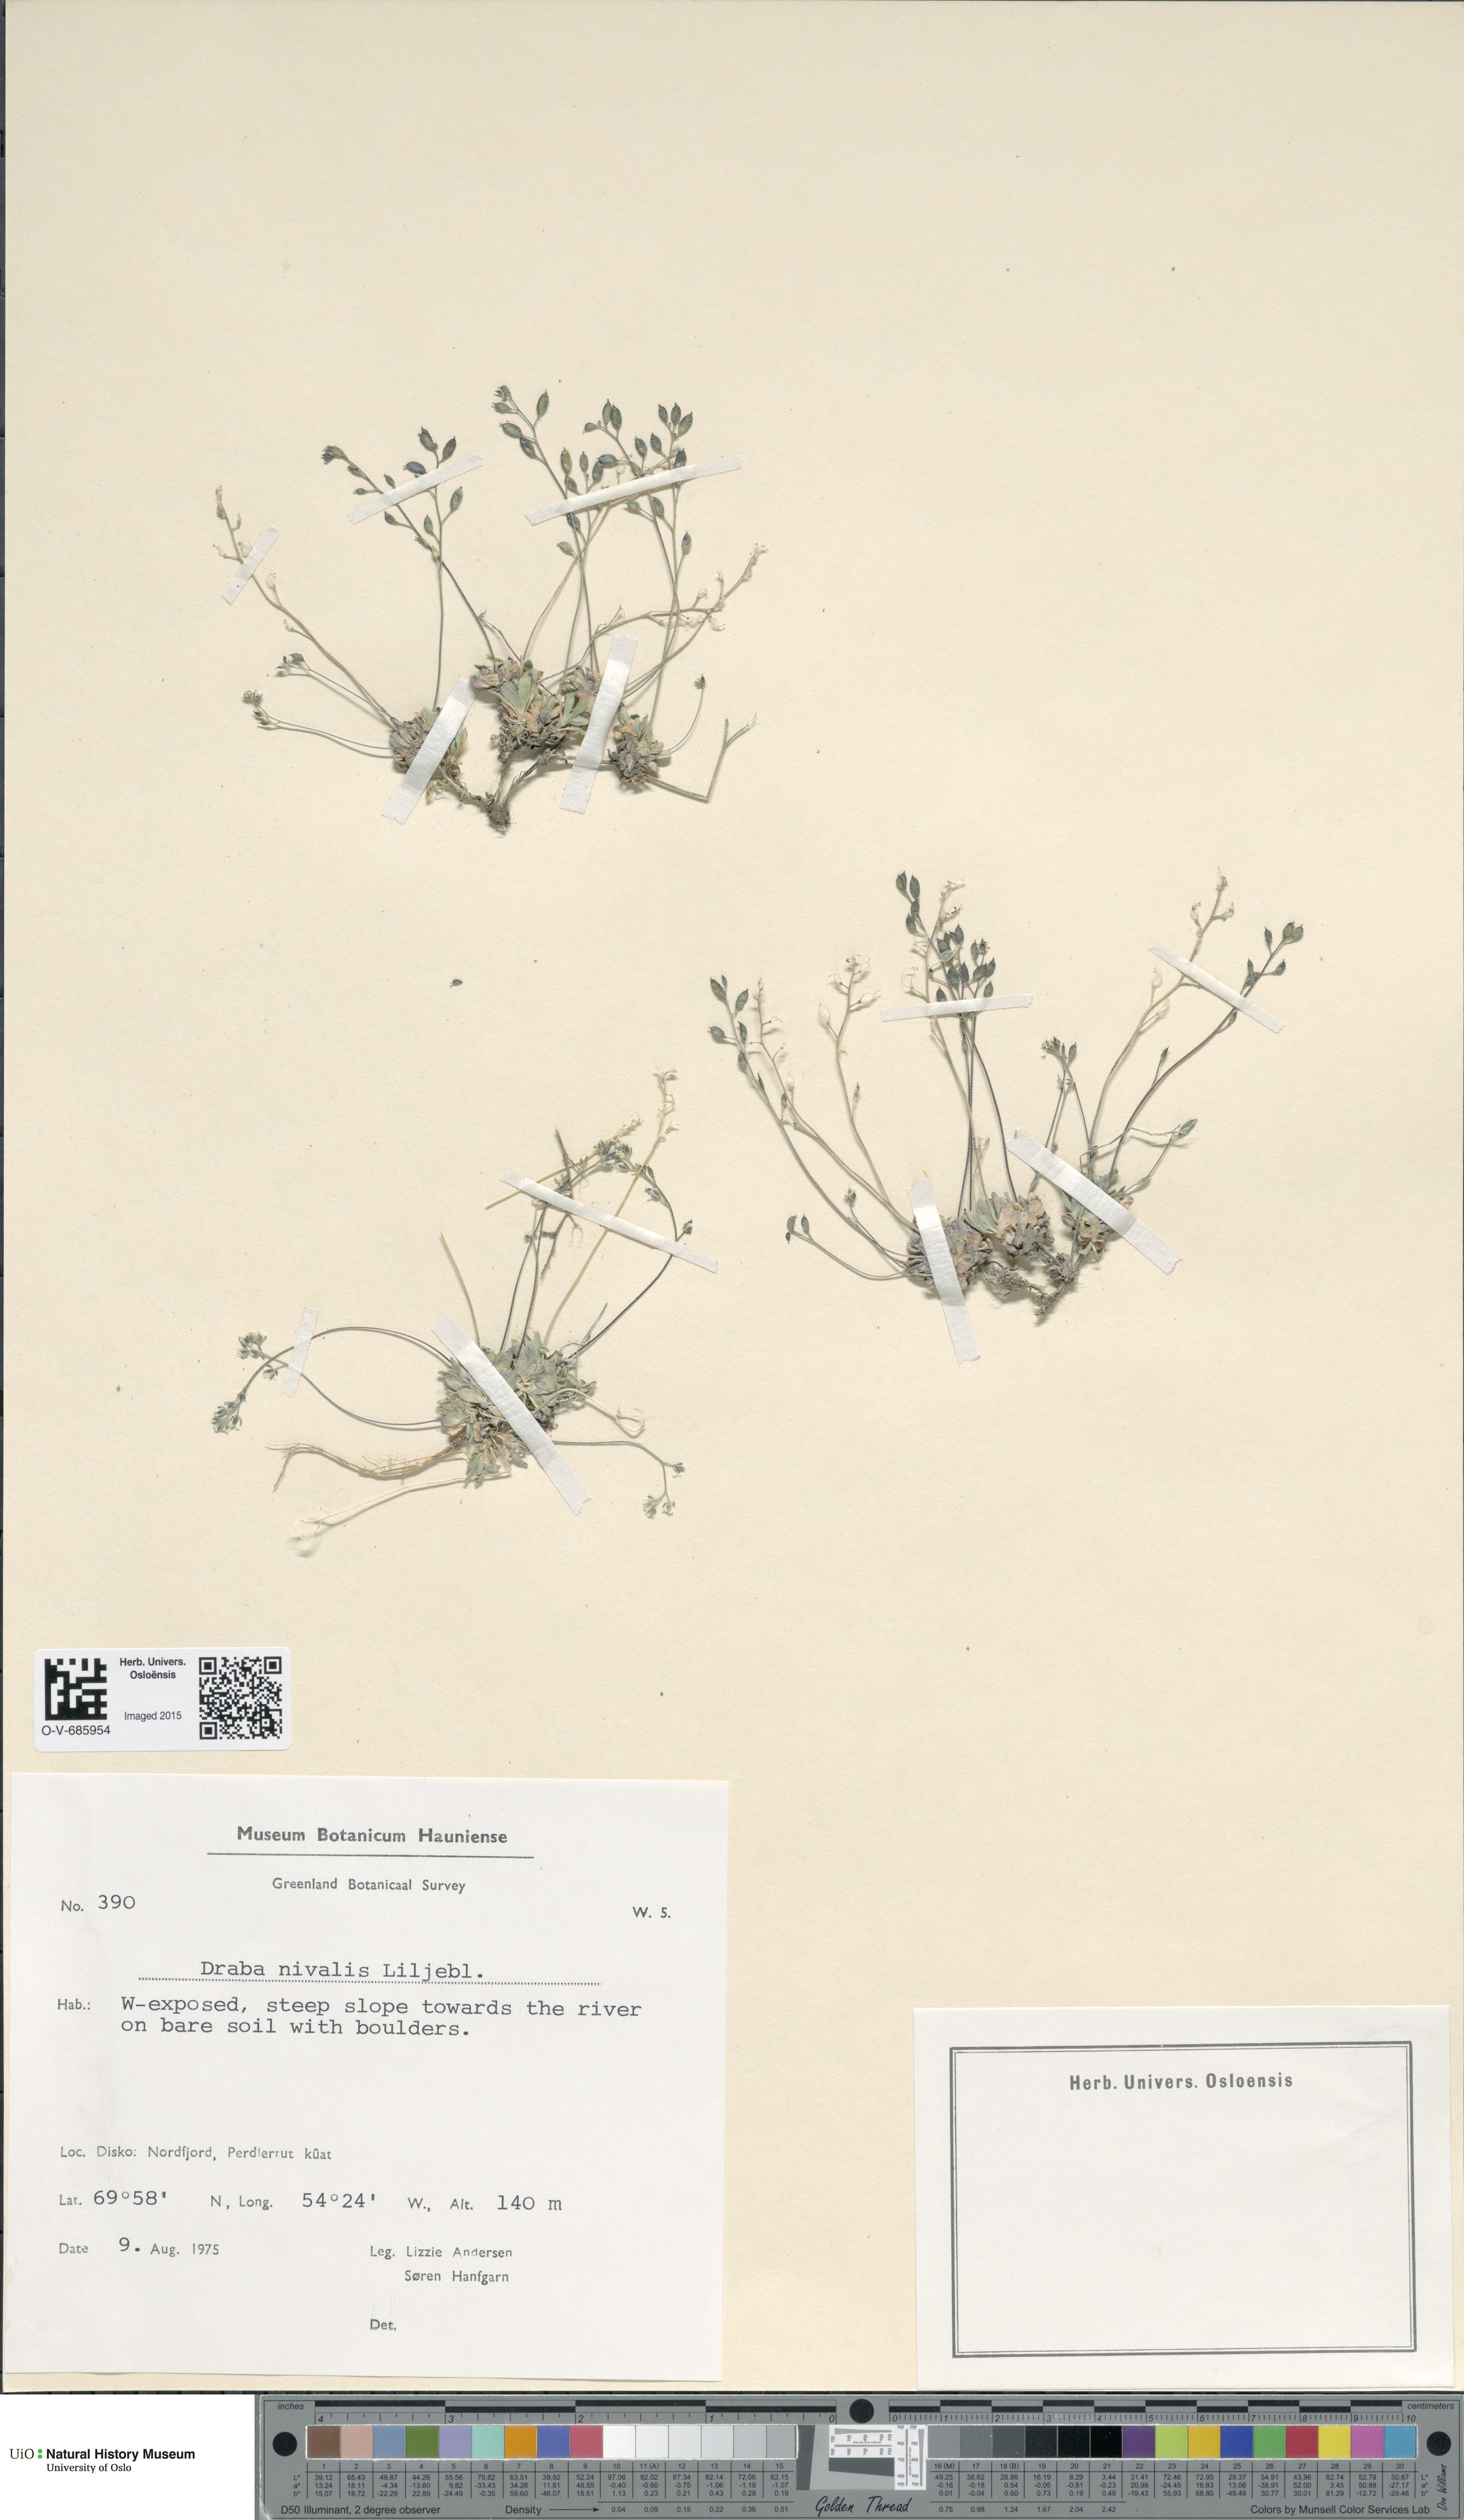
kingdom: Plantae
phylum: Tracheophyta
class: Magnoliopsida
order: Brassicales
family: Brassicaceae
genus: Draba
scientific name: Draba nivalis
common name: Snow draba
